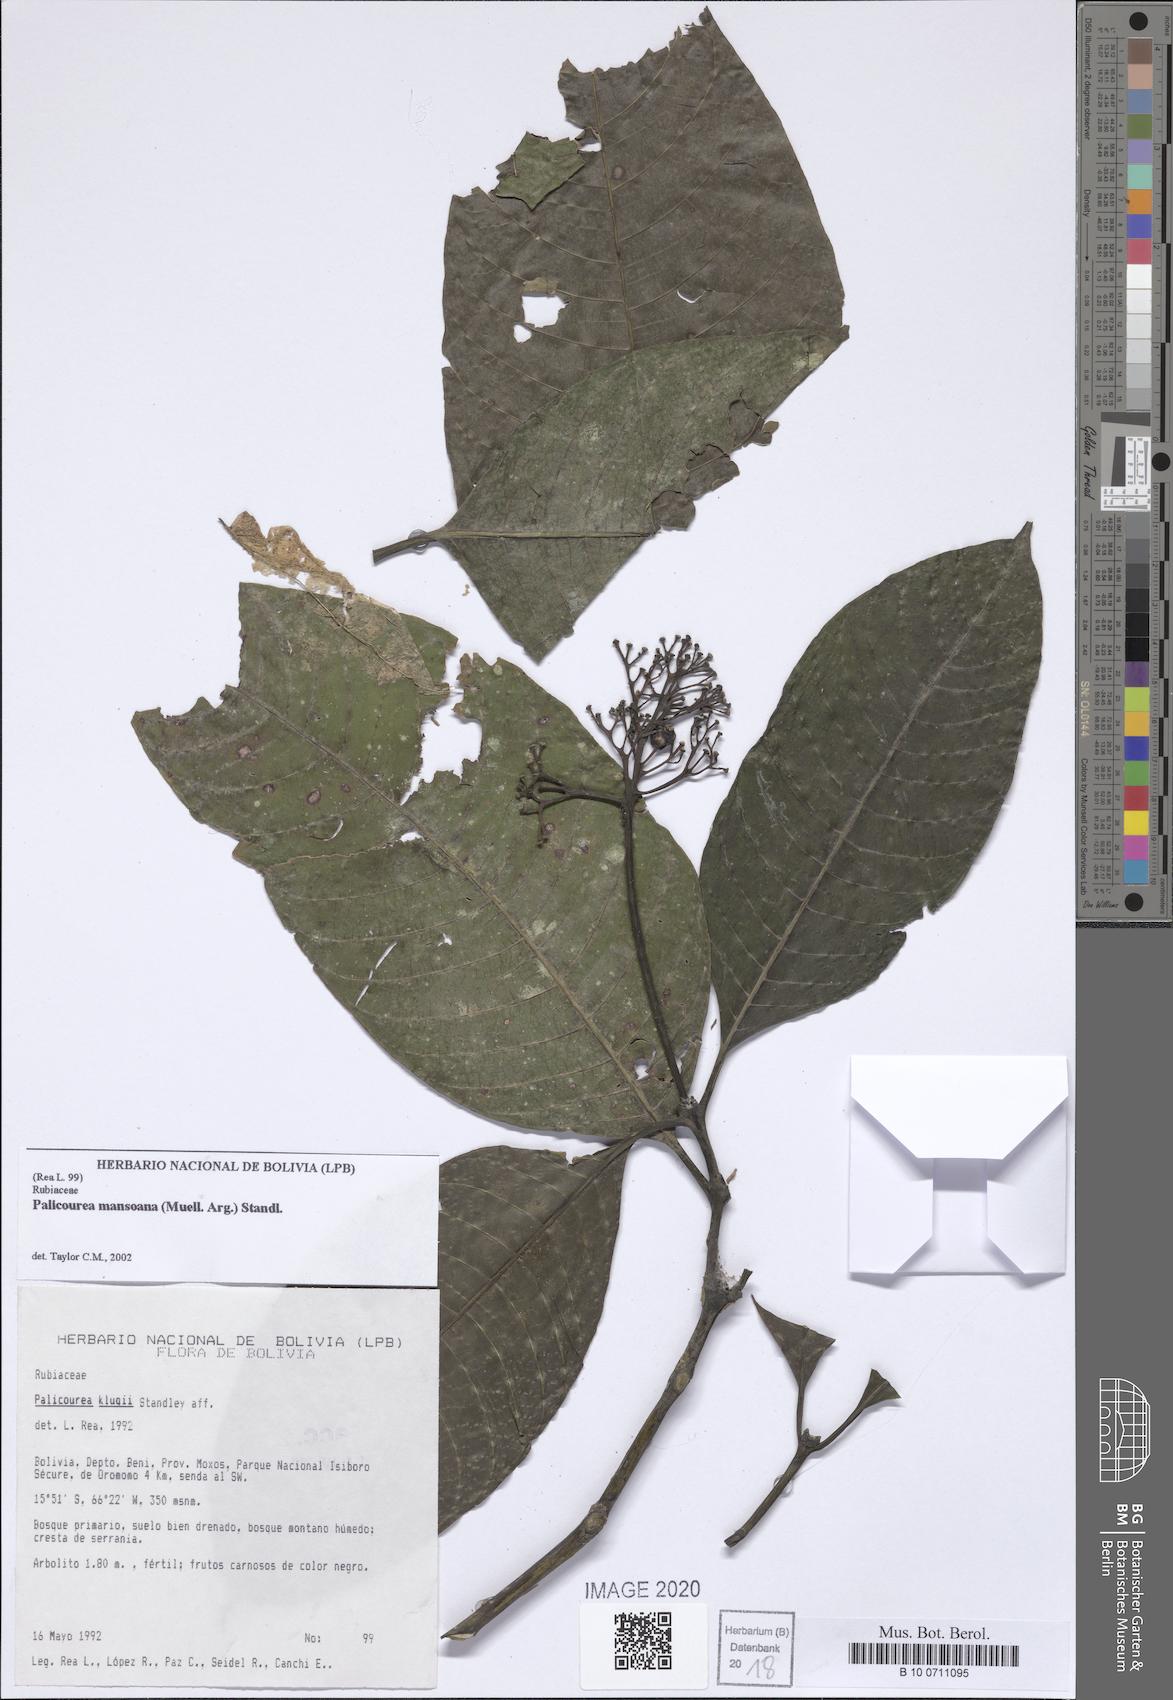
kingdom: Plantae
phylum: Tracheophyta
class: Magnoliopsida
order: Gentianales
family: Rubiaceae
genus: Palicourea
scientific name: Palicourea mansoana
